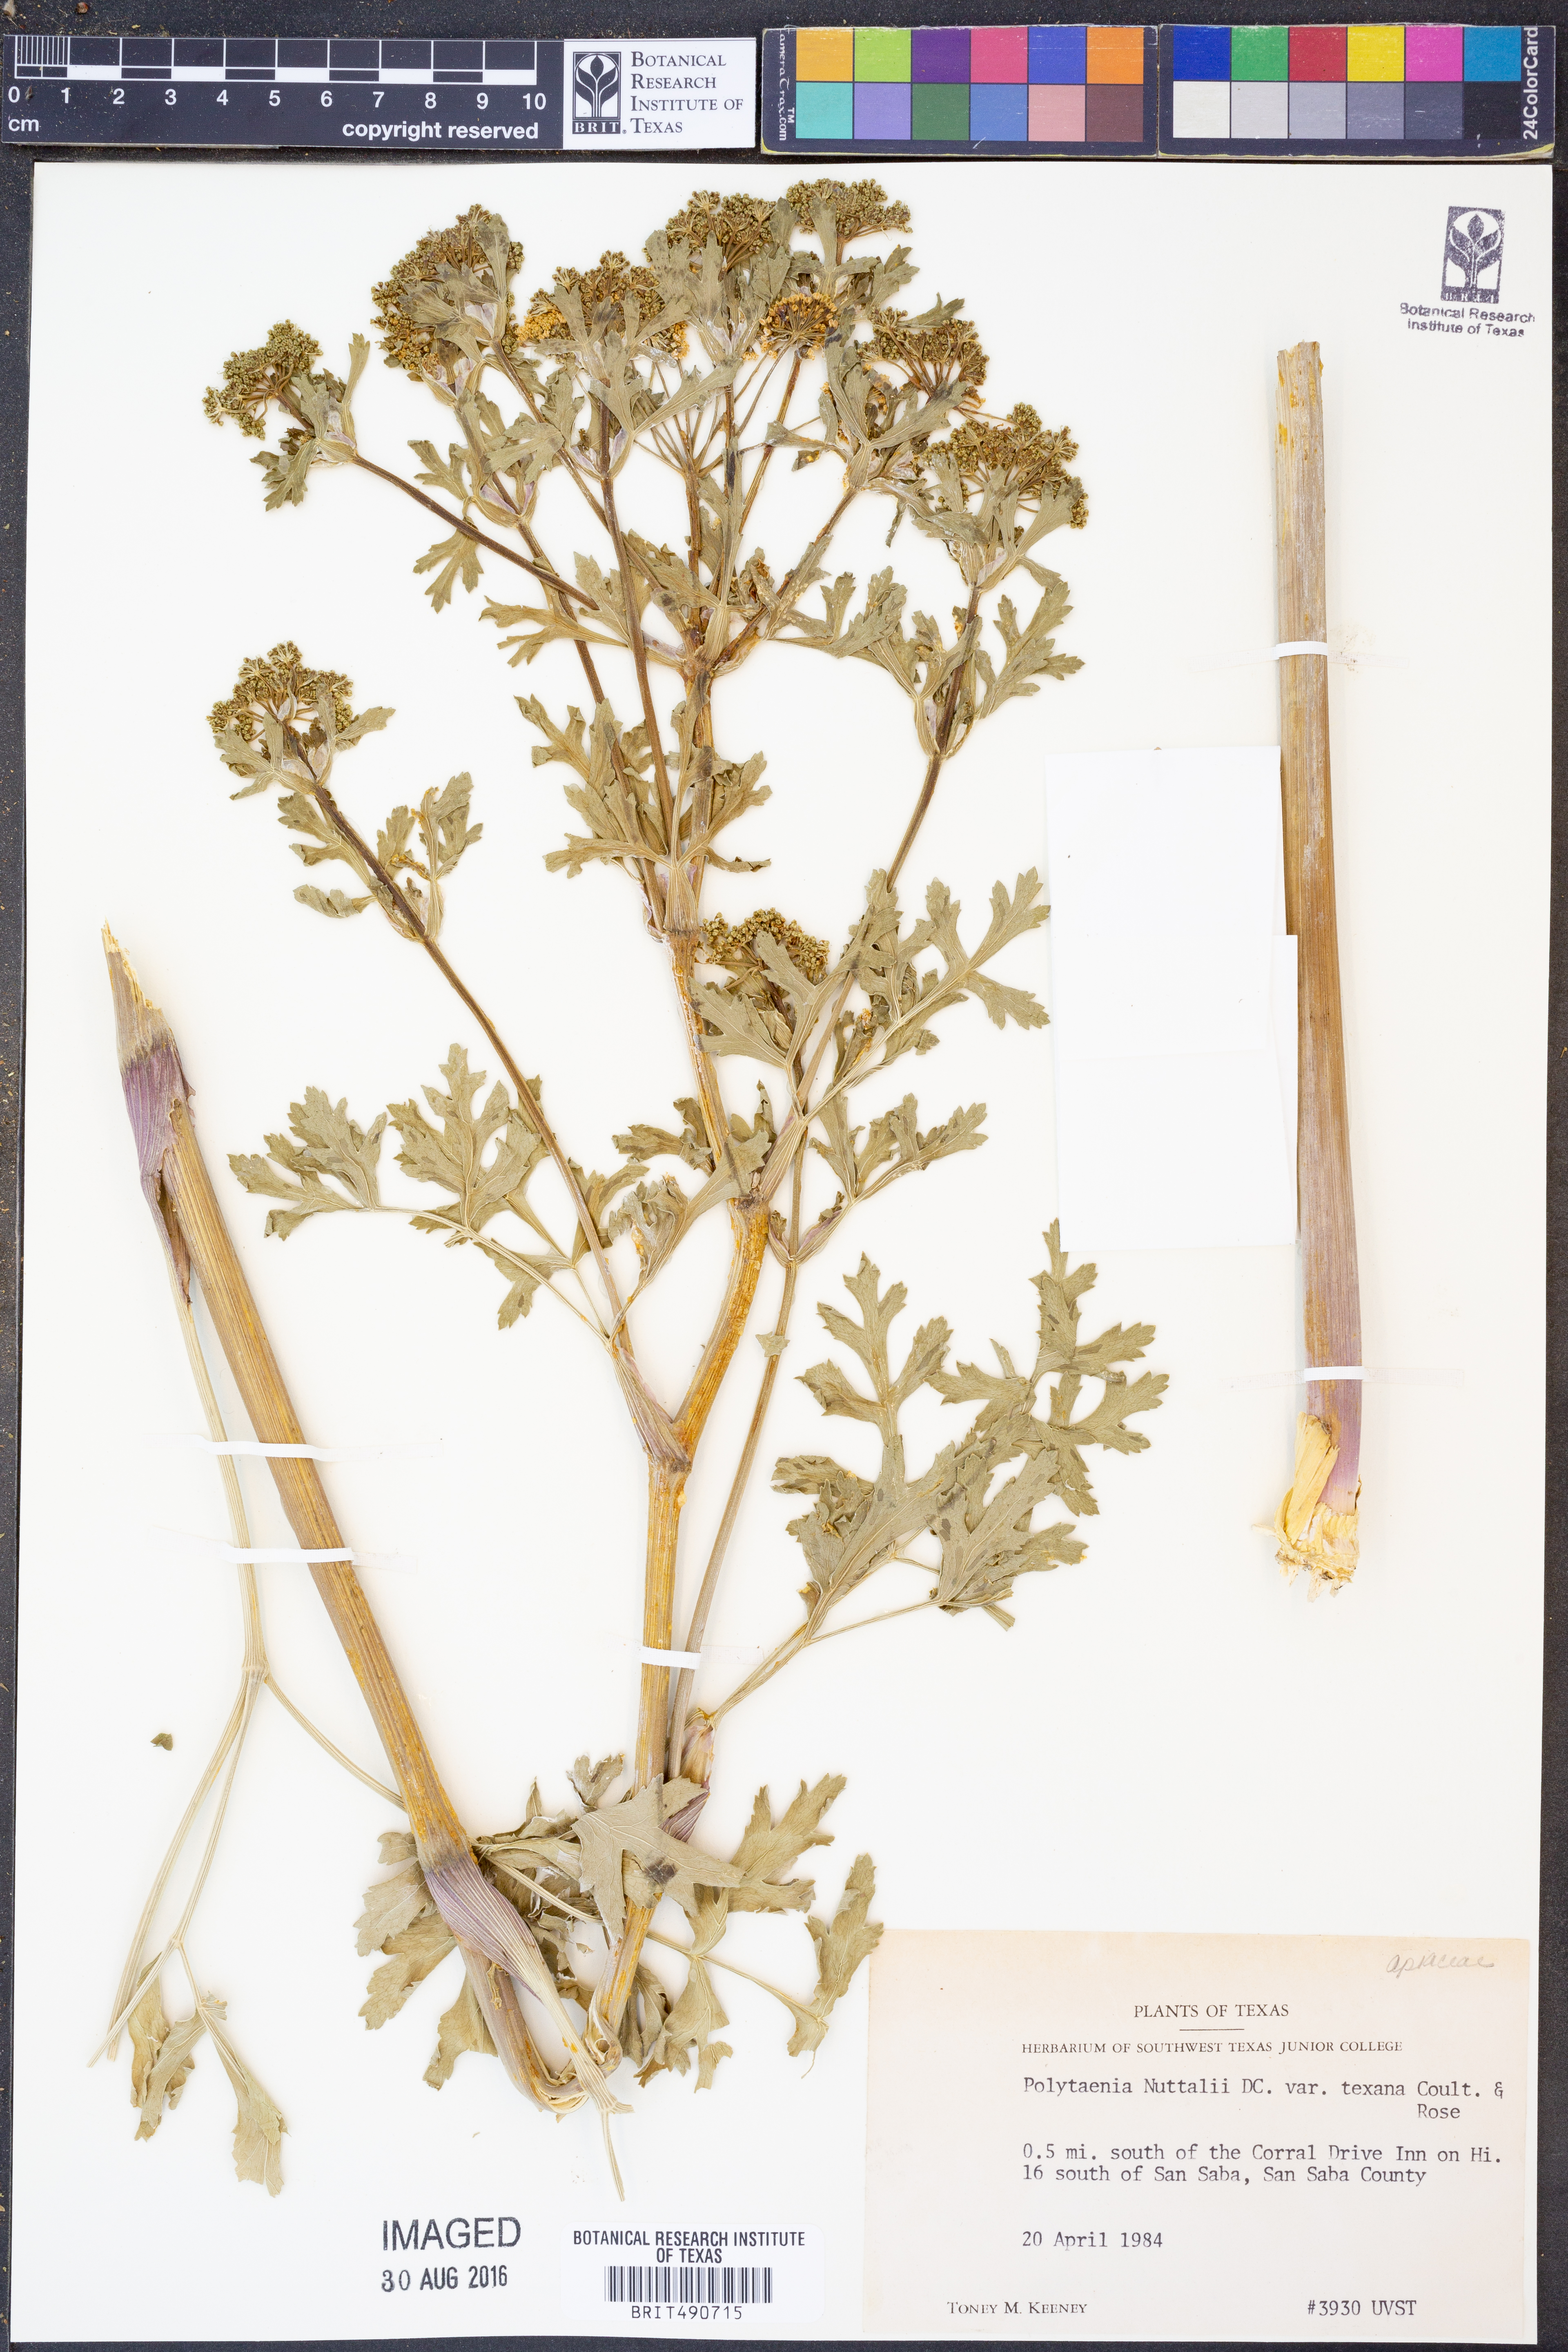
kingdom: Plantae
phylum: Tracheophyta
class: Magnoliopsida
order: Apiales
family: Apiaceae
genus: Polytaenia
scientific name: Polytaenia nuttallii
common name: Prairie-parsley
